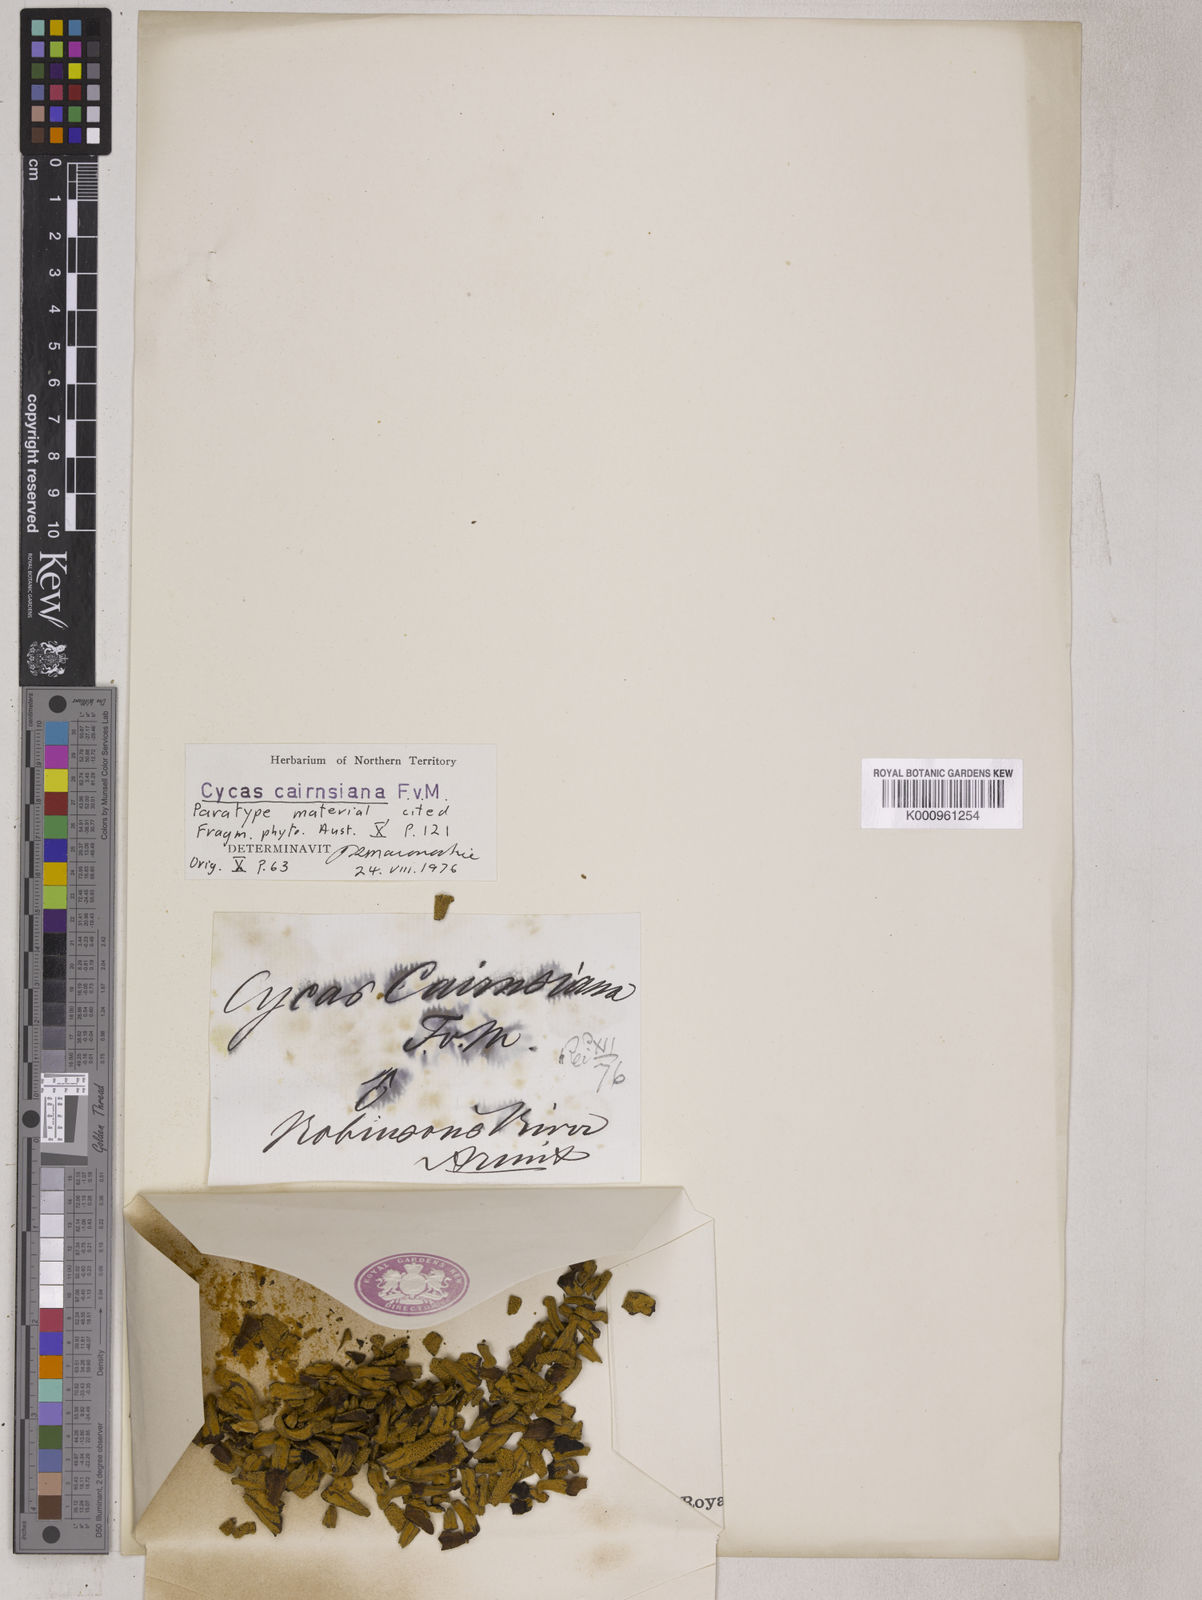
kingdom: Plantae
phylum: Tracheophyta
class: Cycadopsida
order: Cycadales
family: Cycadaceae
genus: Cycas
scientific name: Cycas cairnsiana
